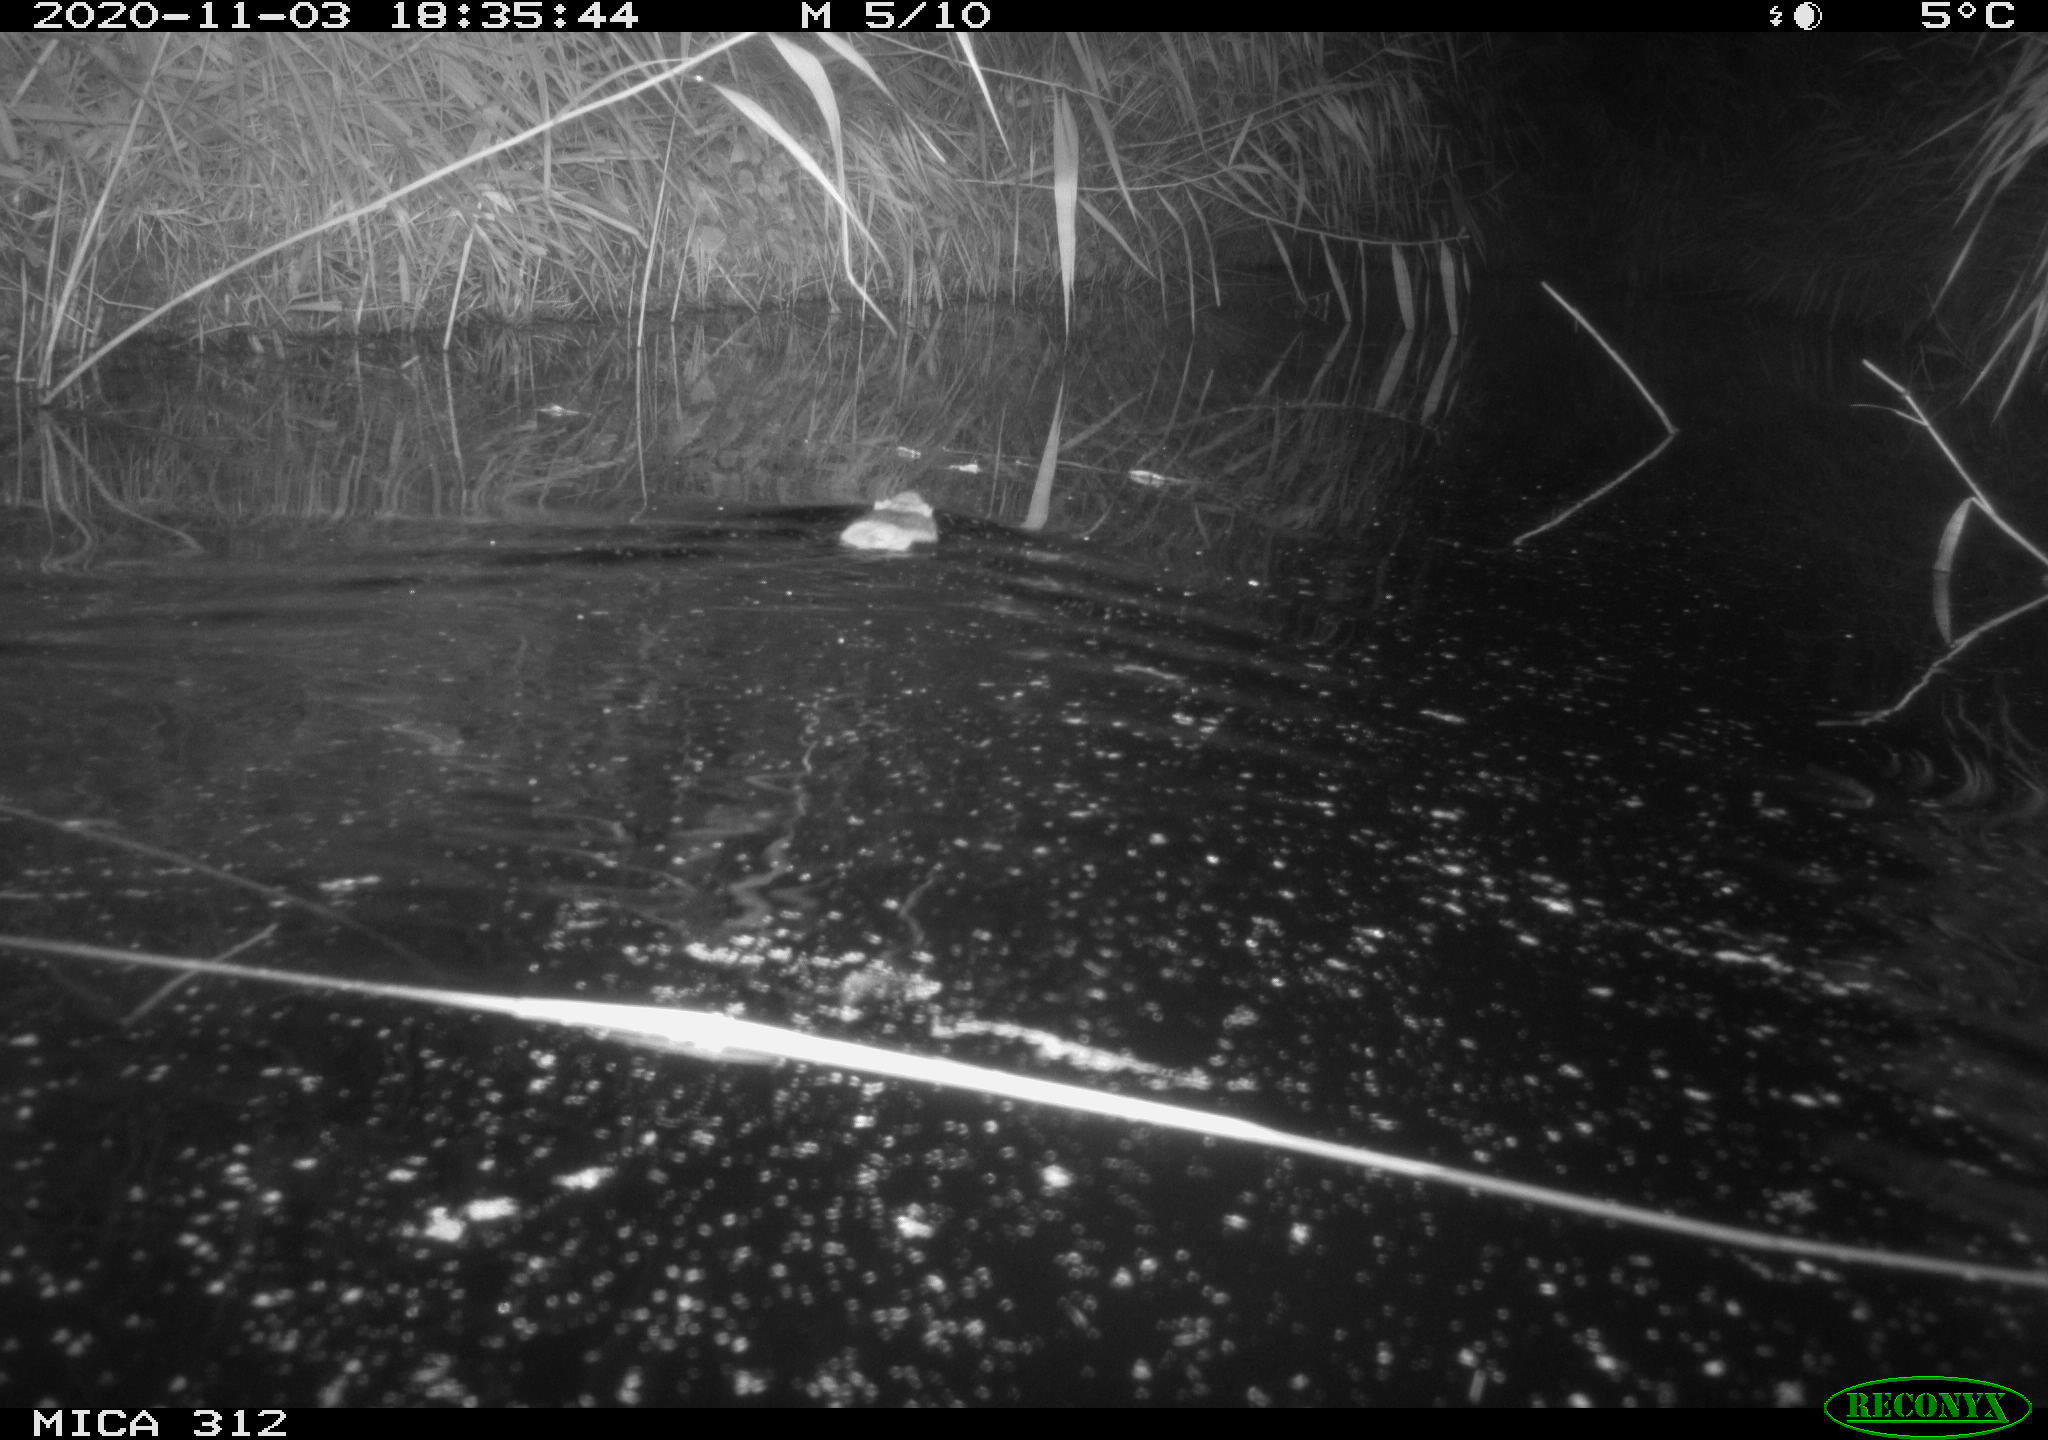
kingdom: Animalia
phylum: Chordata
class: Mammalia
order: Rodentia
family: Cricetidae
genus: Ondatra
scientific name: Ondatra zibethicus
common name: Muskrat
